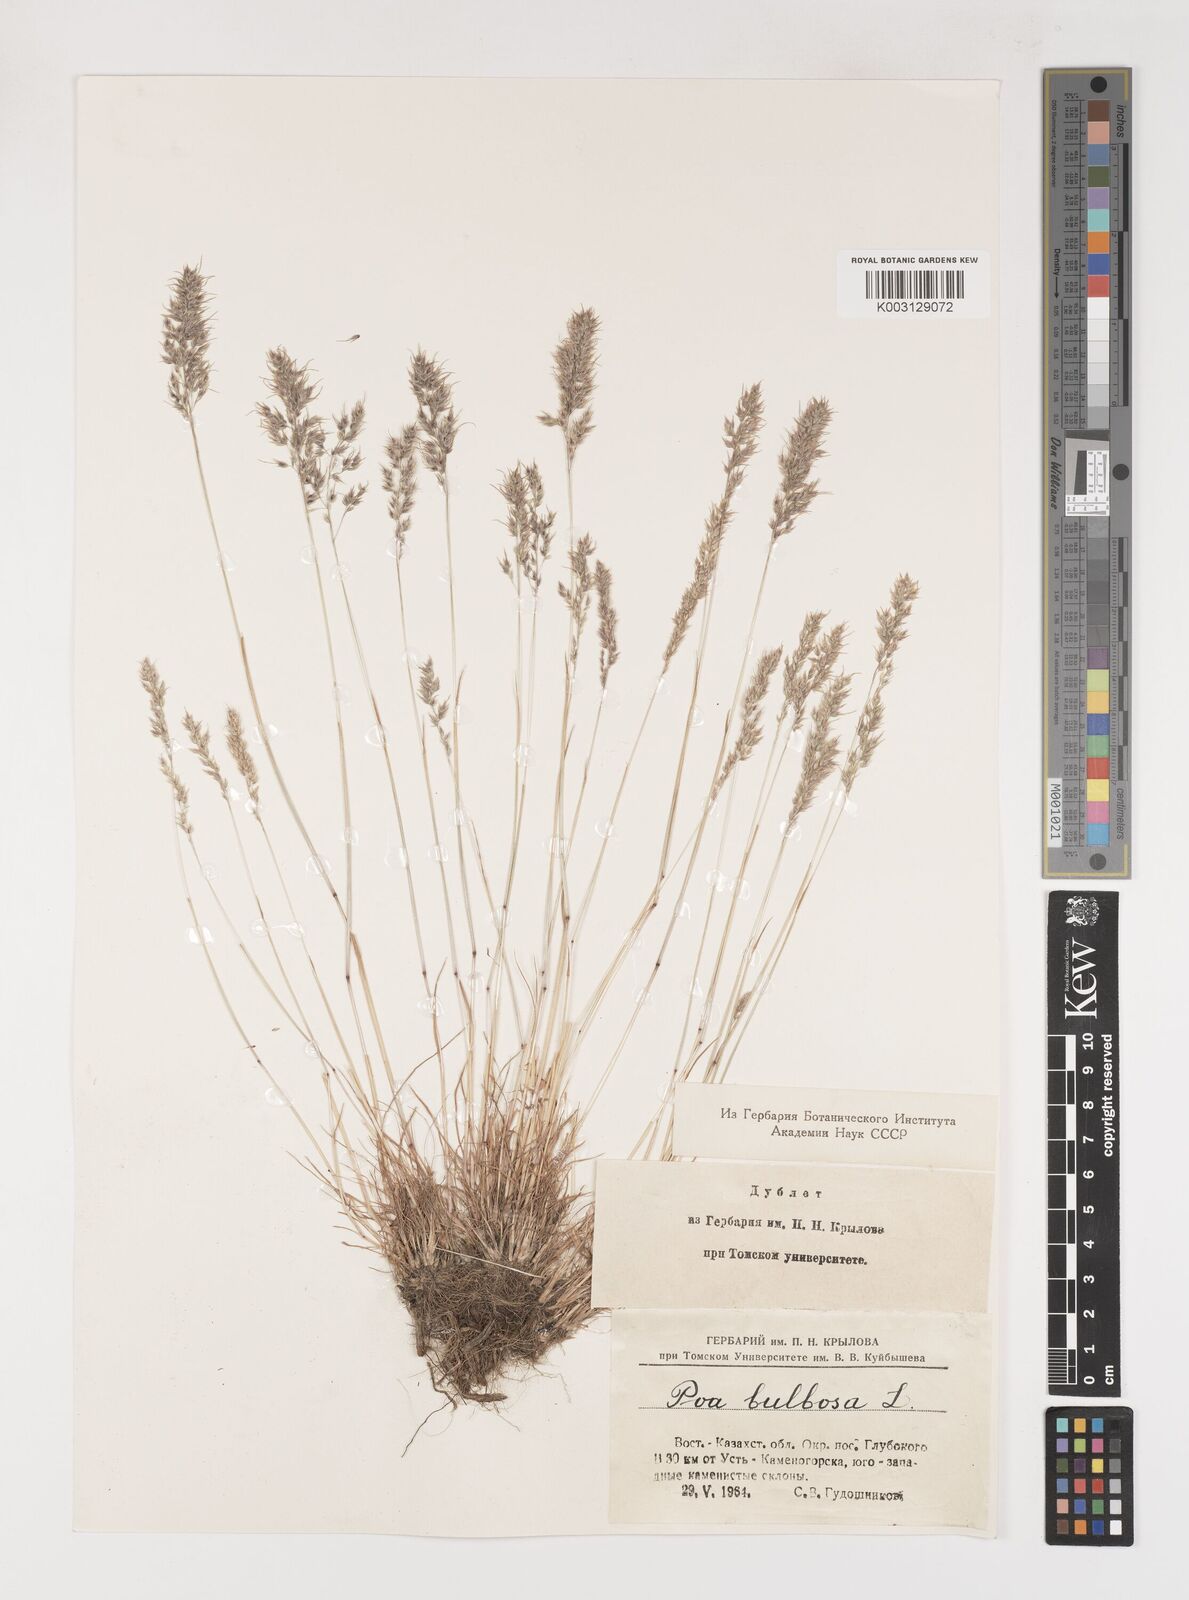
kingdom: Plantae
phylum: Tracheophyta
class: Liliopsida
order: Poales
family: Poaceae
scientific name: Poaceae
